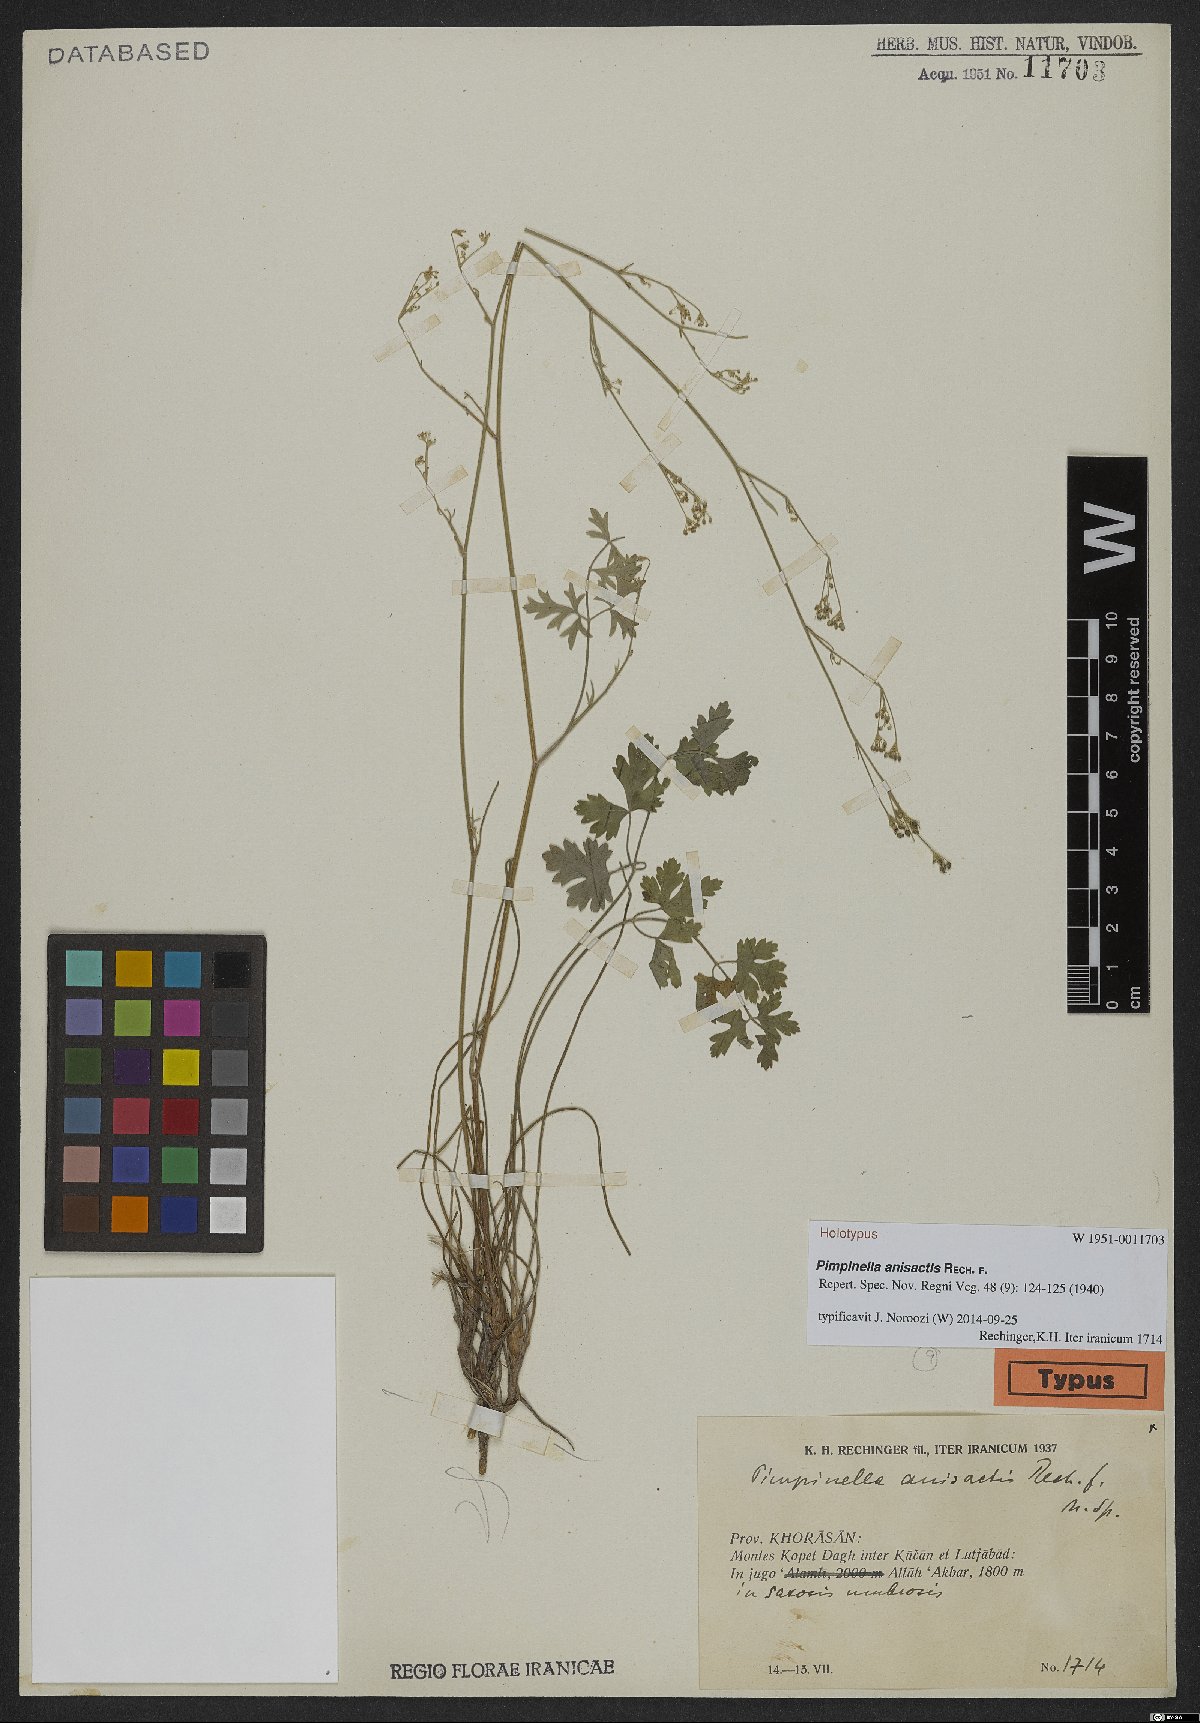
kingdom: Plantae
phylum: Tracheophyta
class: Magnoliopsida
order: Apiales
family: Apiaceae
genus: Pimpinella
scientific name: Pimpinella anisactis
